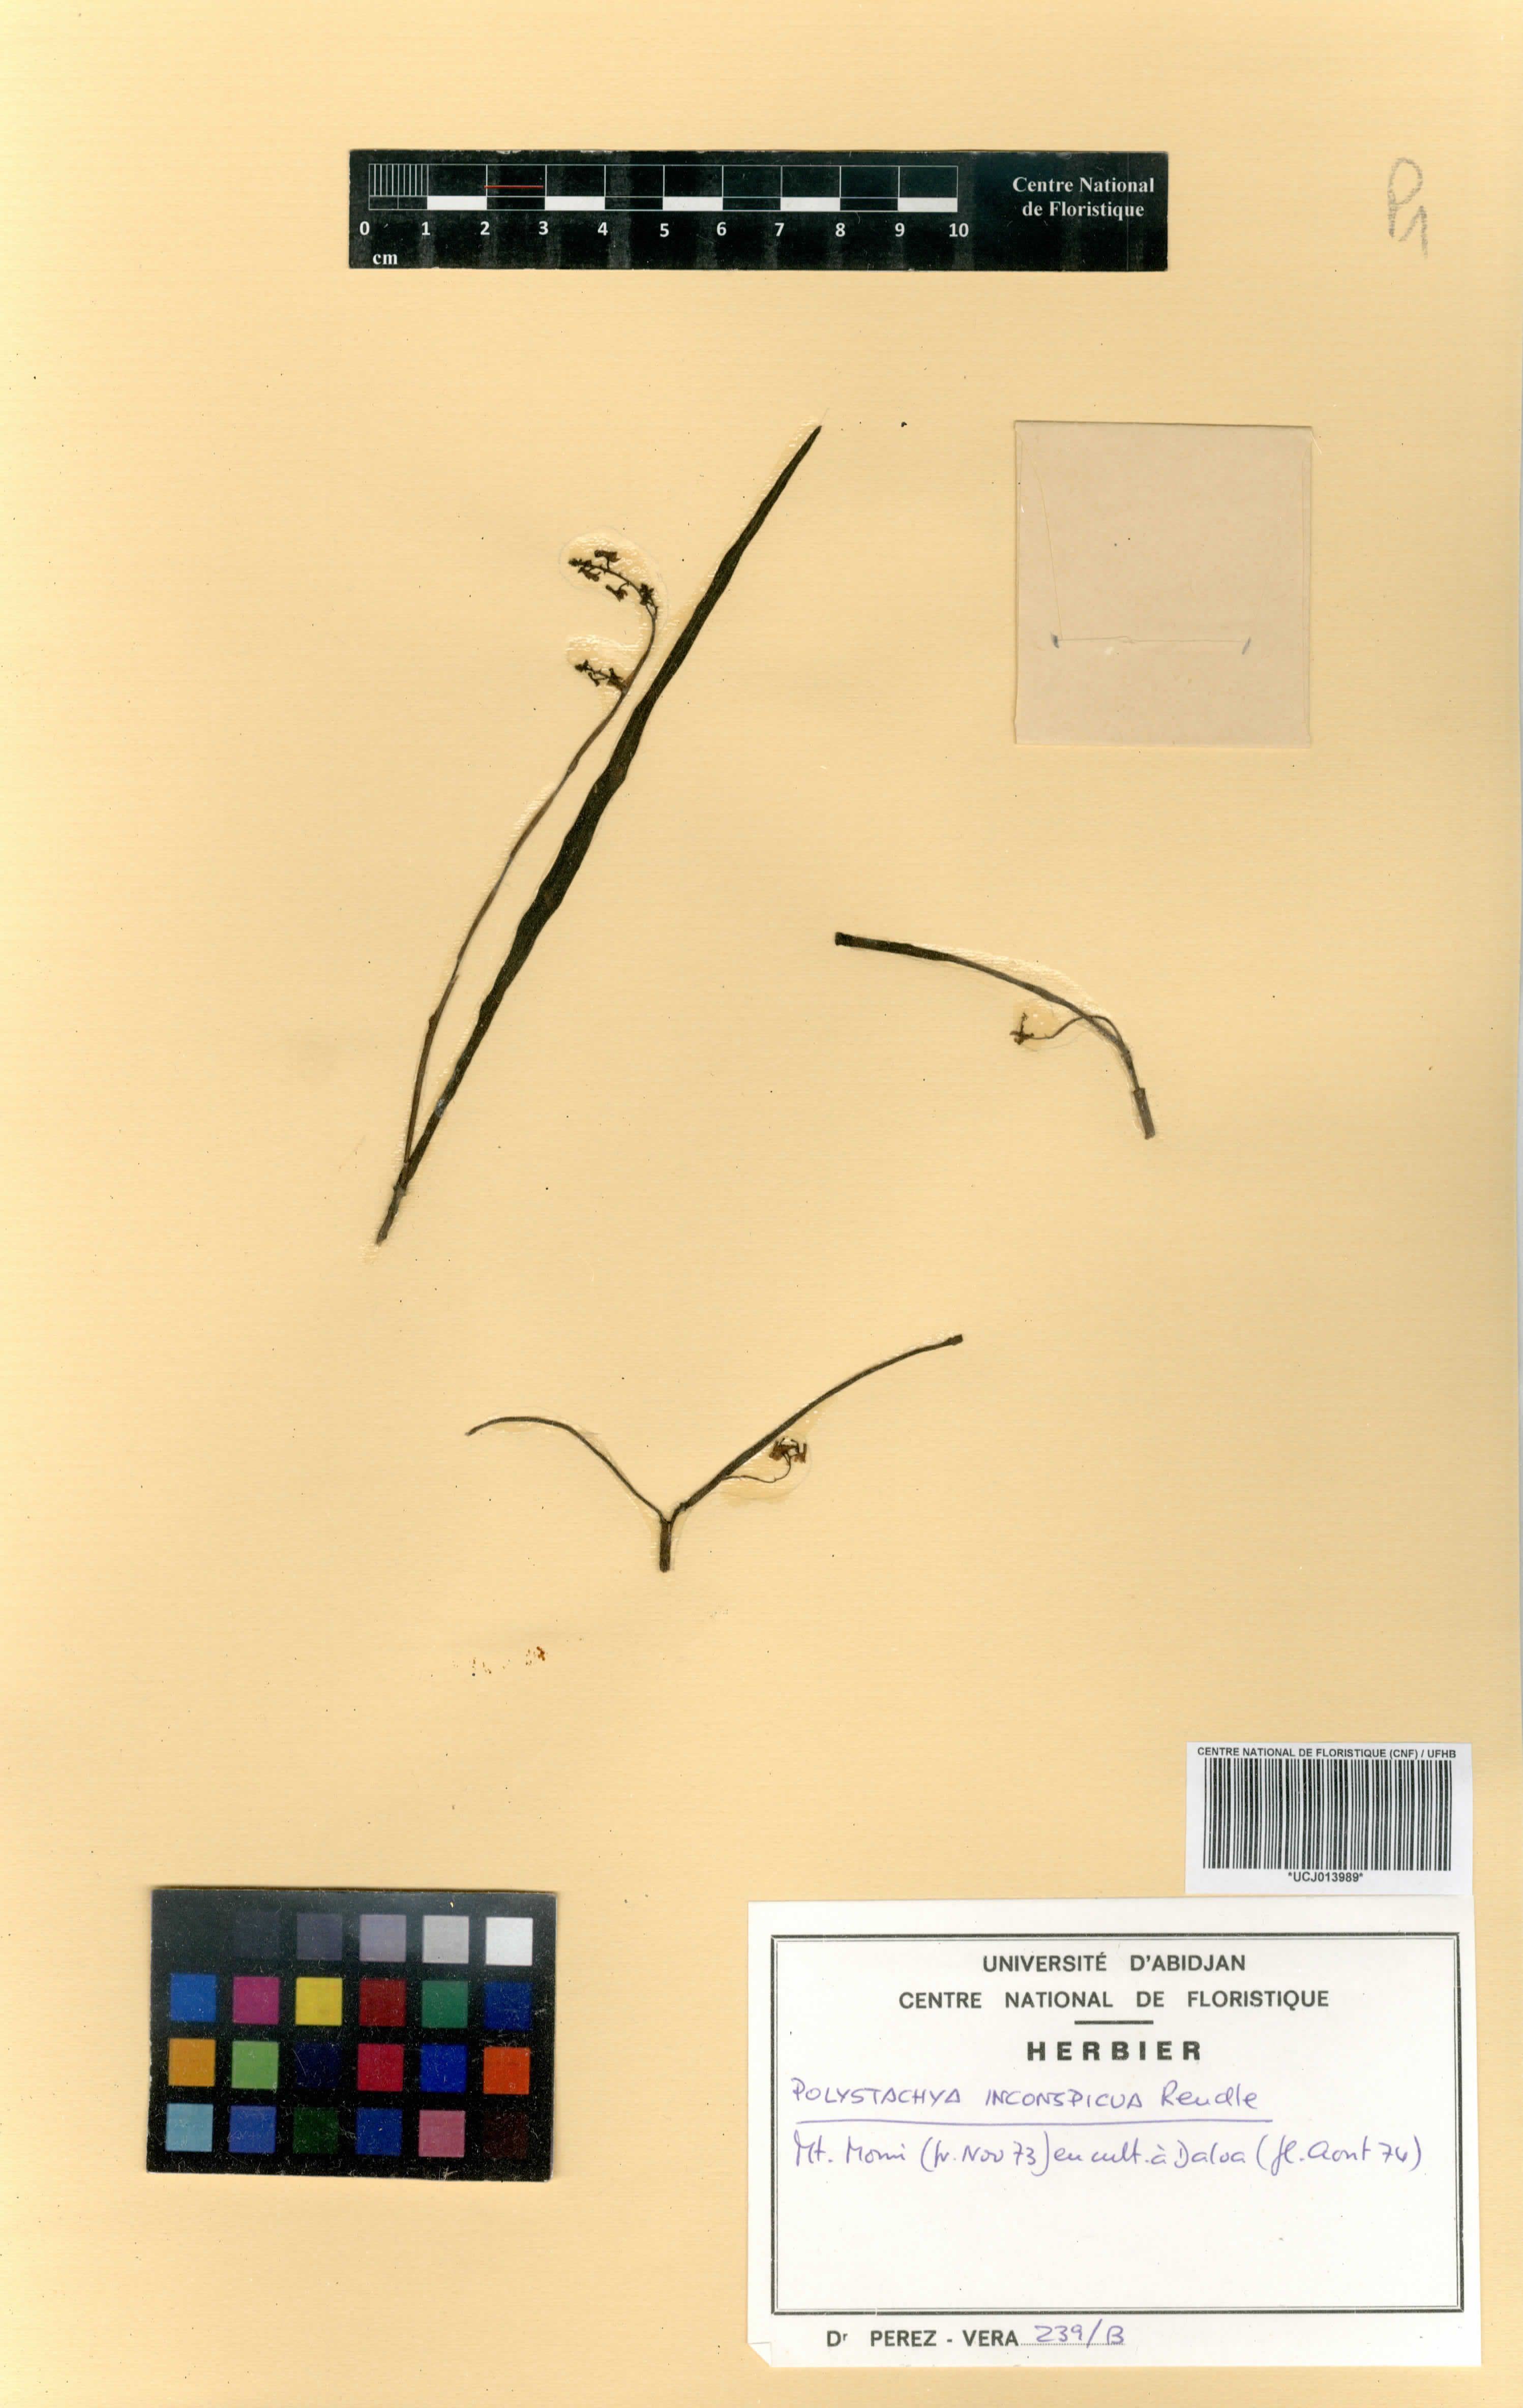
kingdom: Plantae
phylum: Tracheophyta
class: Liliopsida
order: Asparagales
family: Orchidaceae
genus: Polystachya
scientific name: Polystachya tenuissima
